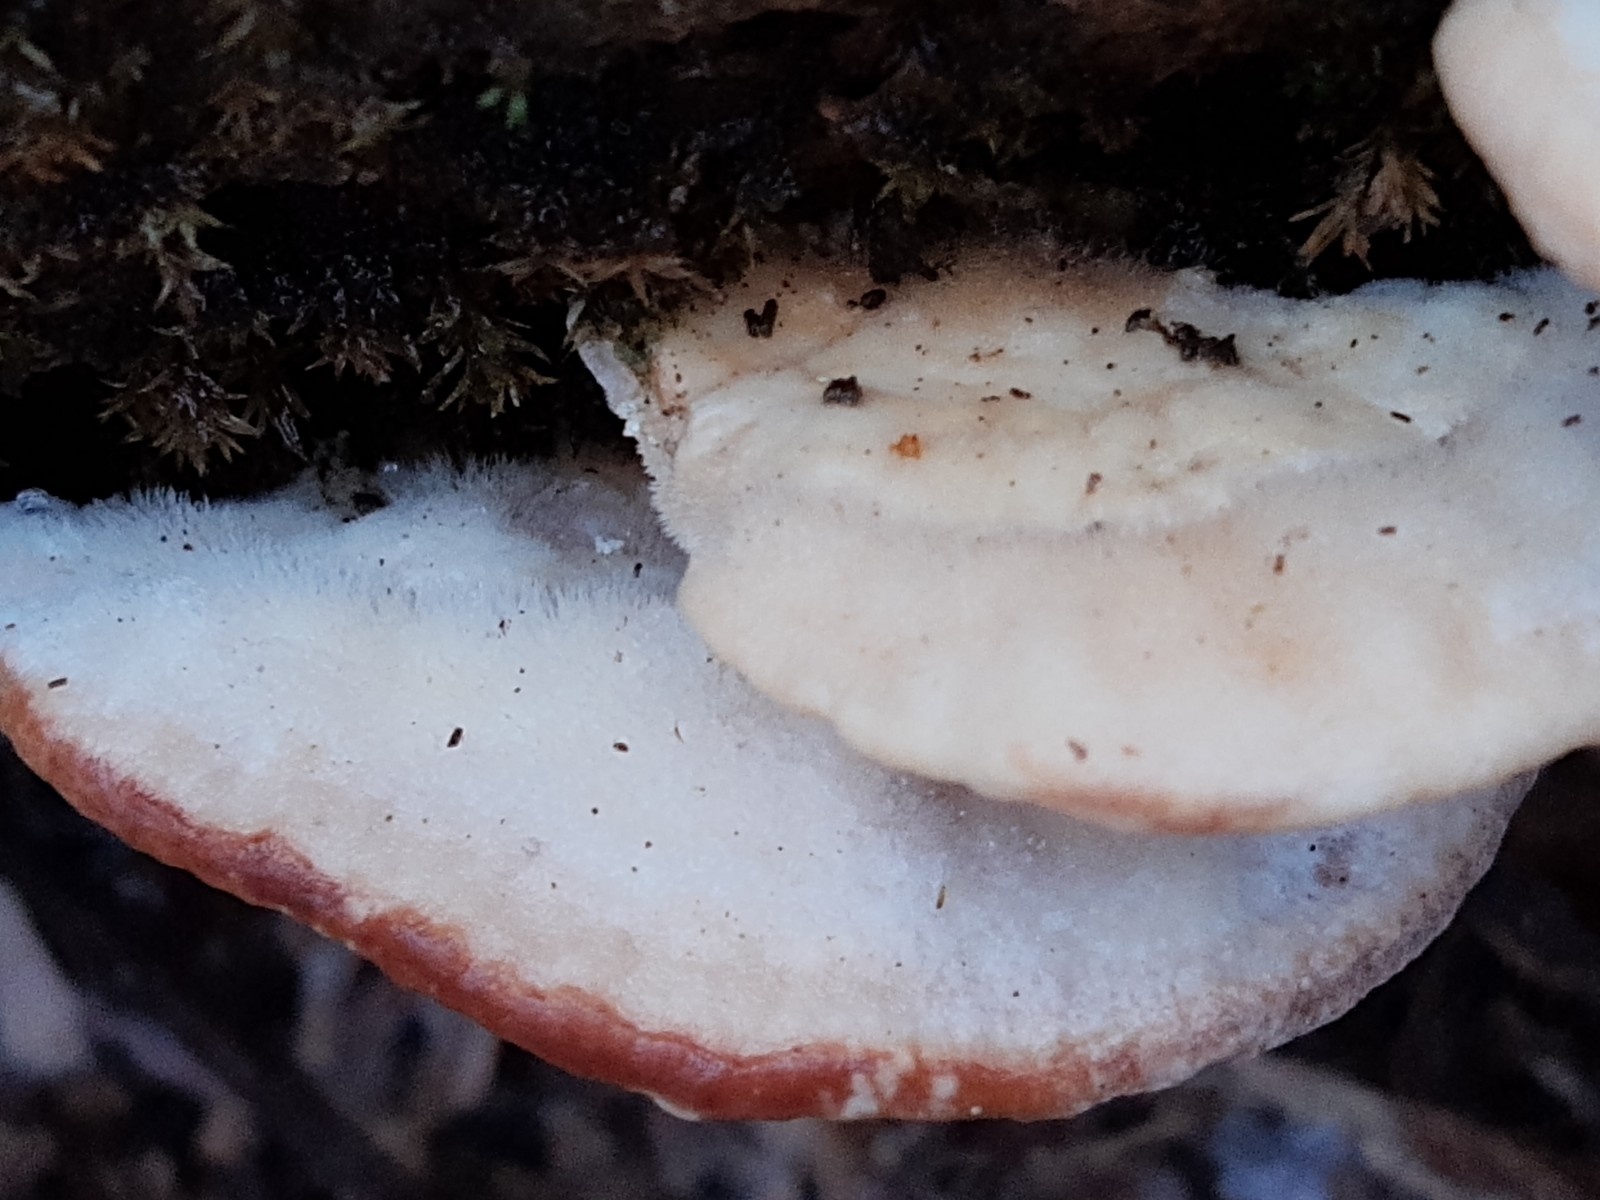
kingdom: Fungi
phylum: Basidiomycota
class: Agaricomycetes
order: Polyporales
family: Polyporaceae
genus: Trametes
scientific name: Trametes hirsuta
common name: håret læderporesvamp
